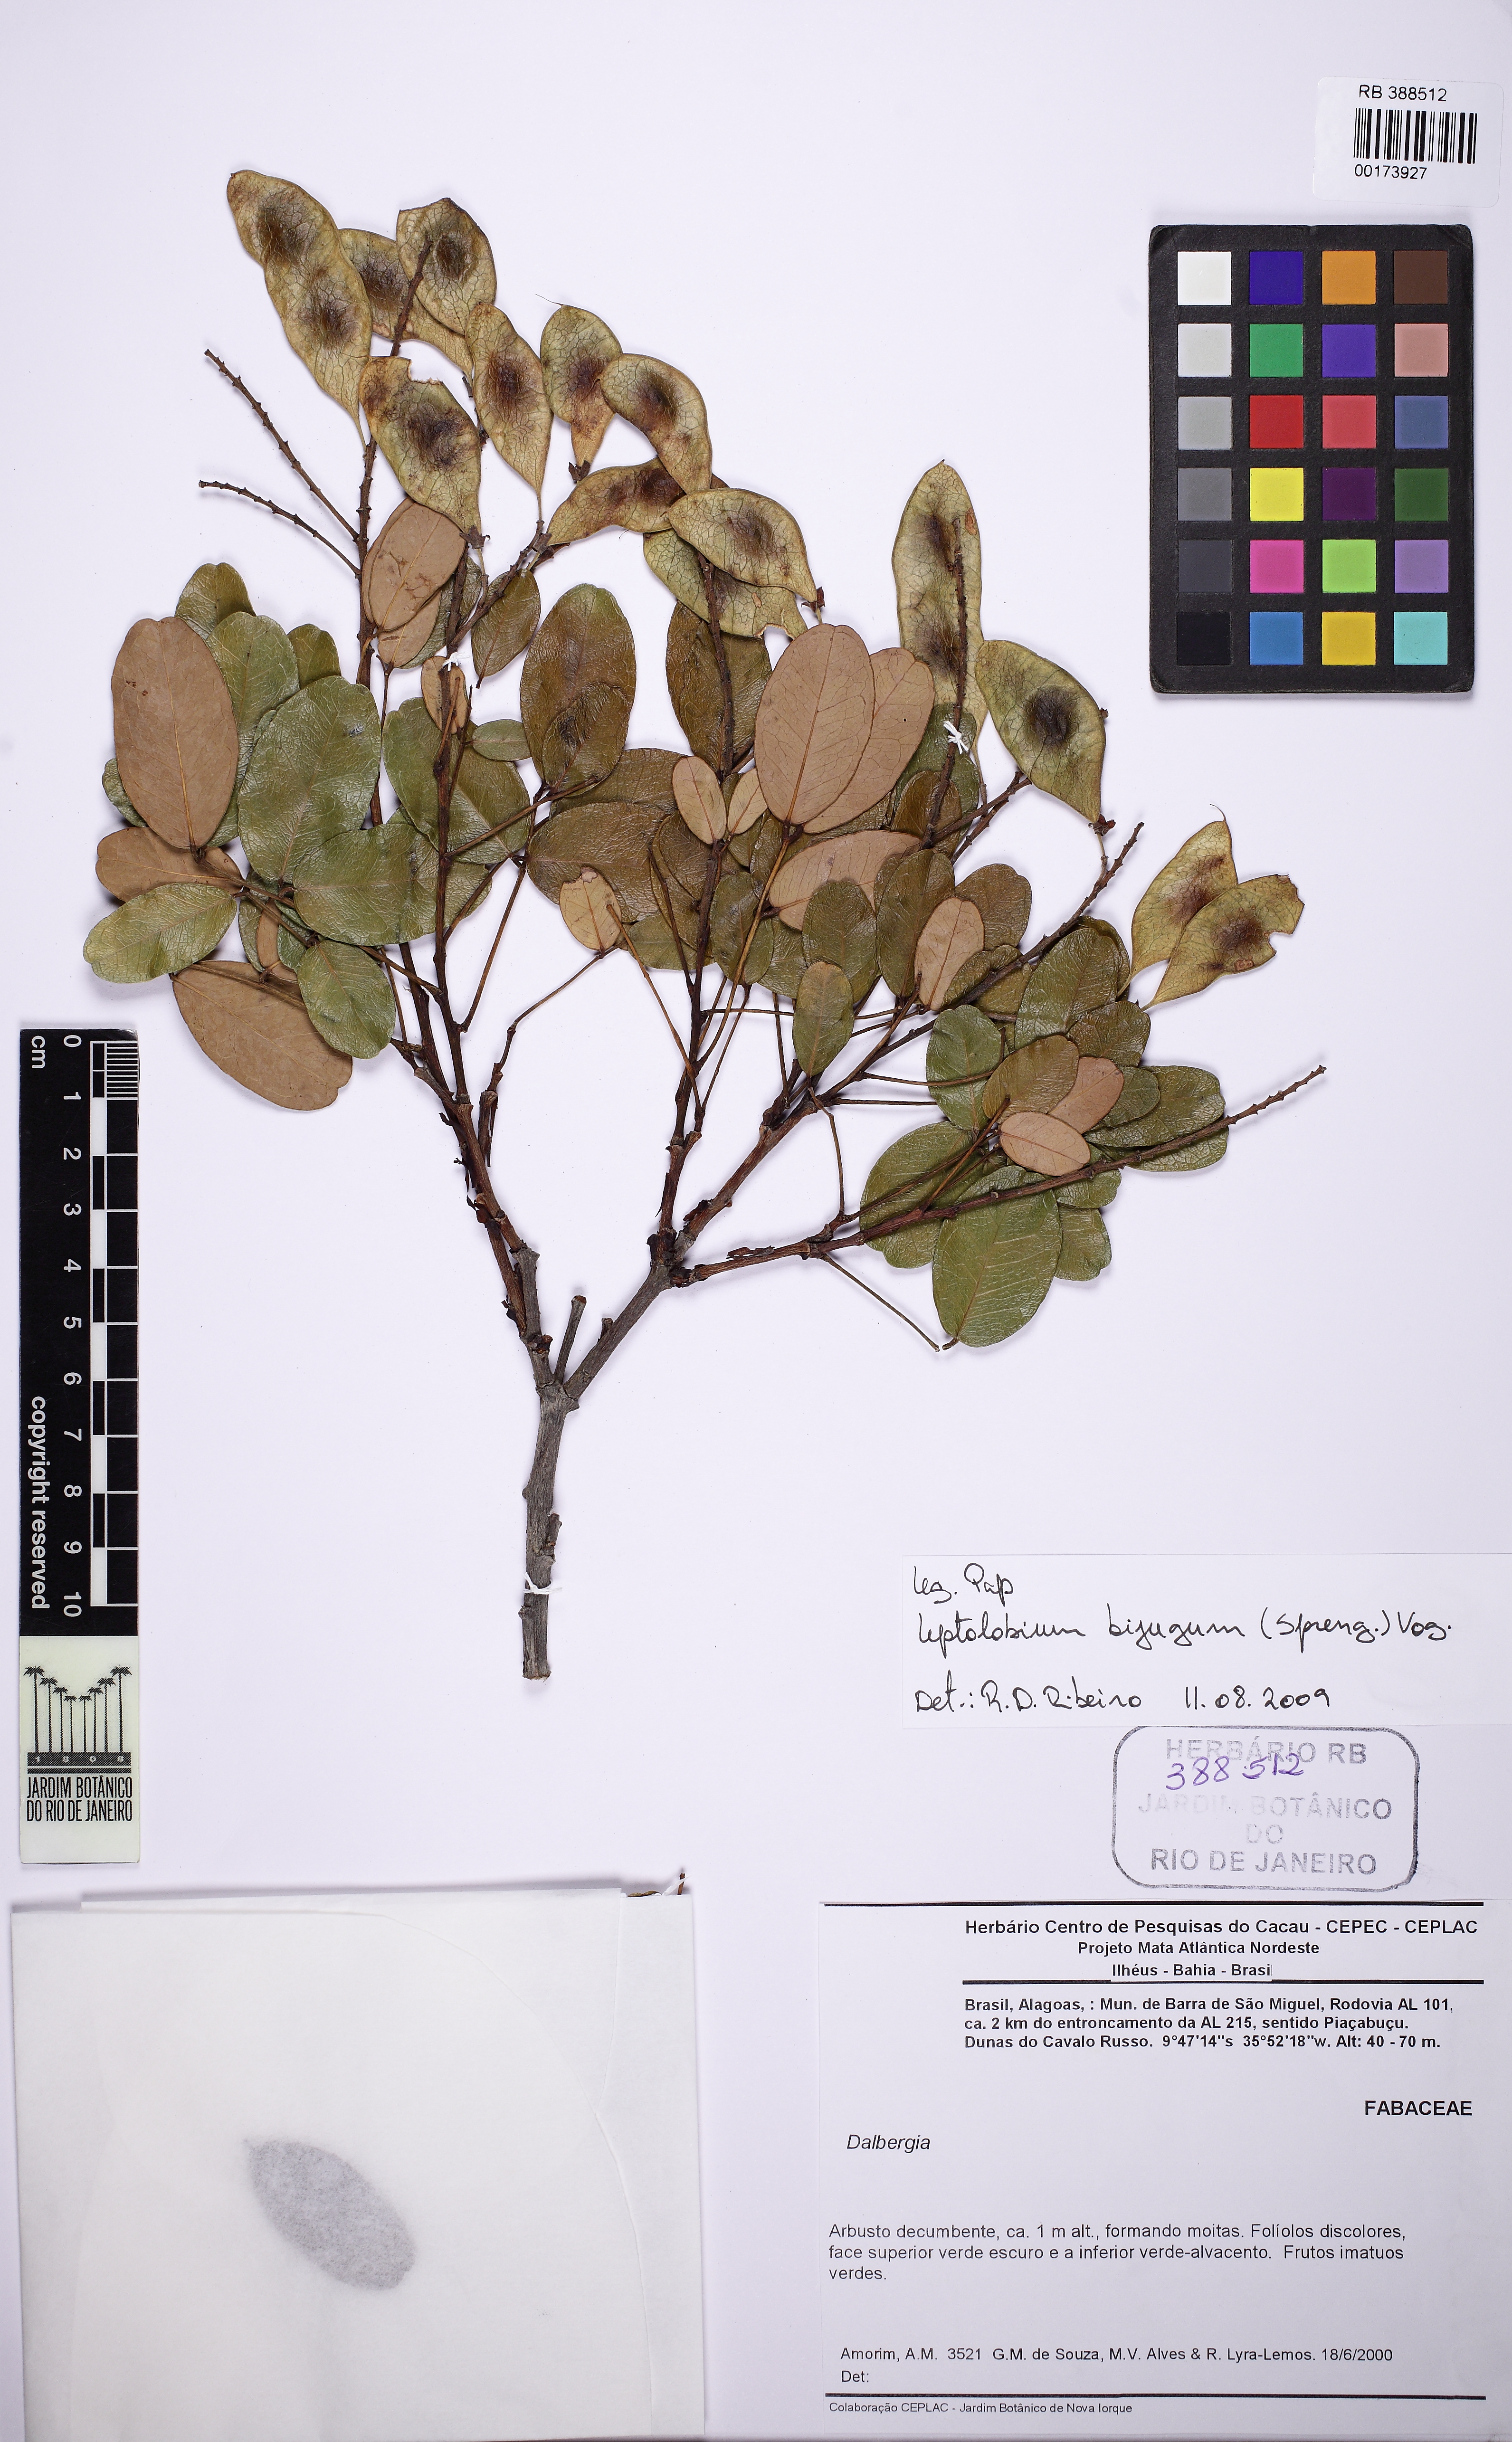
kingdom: Plantae
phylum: Tracheophyta
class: Magnoliopsida
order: Fabales
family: Fabaceae
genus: Dalbergia
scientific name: Dalbergia
